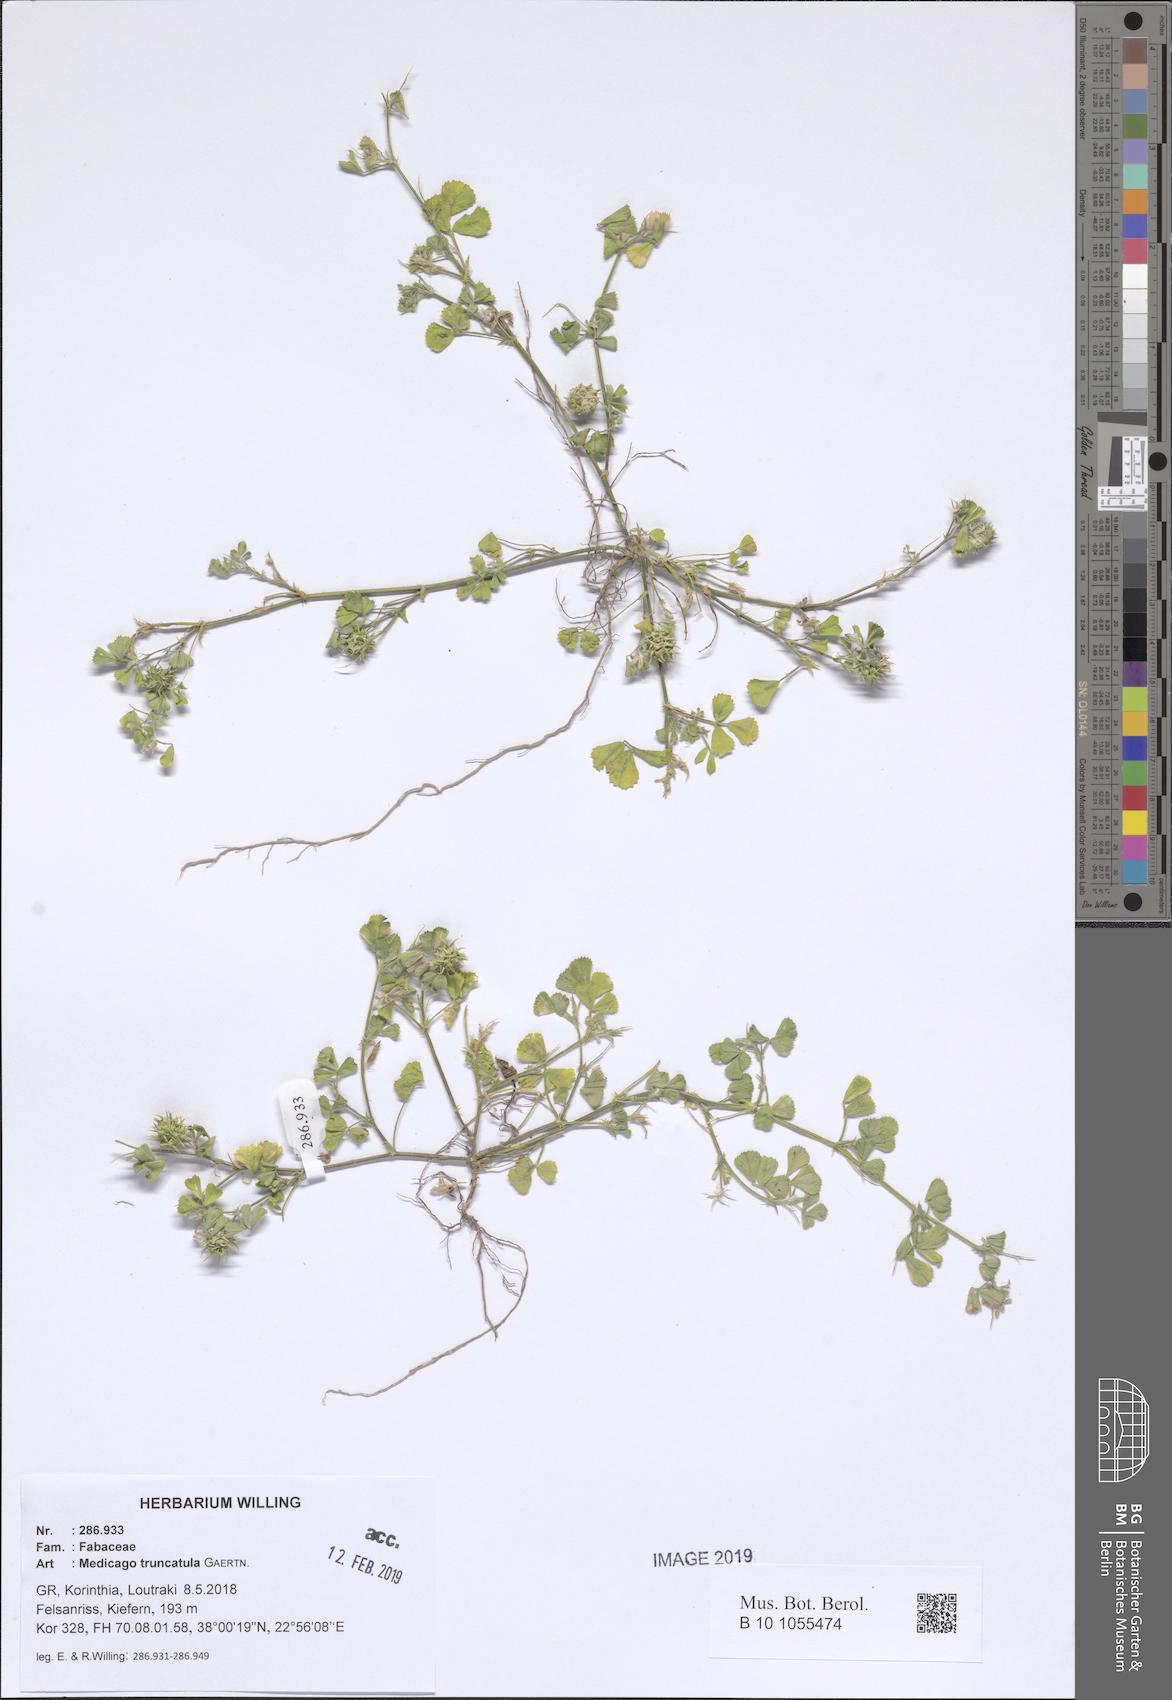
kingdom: Plantae
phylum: Tracheophyta
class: Magnoliopsida
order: Fabales
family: Fabaceae
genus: Medicago
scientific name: Medicago truncatula
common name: Strong-spined medick
